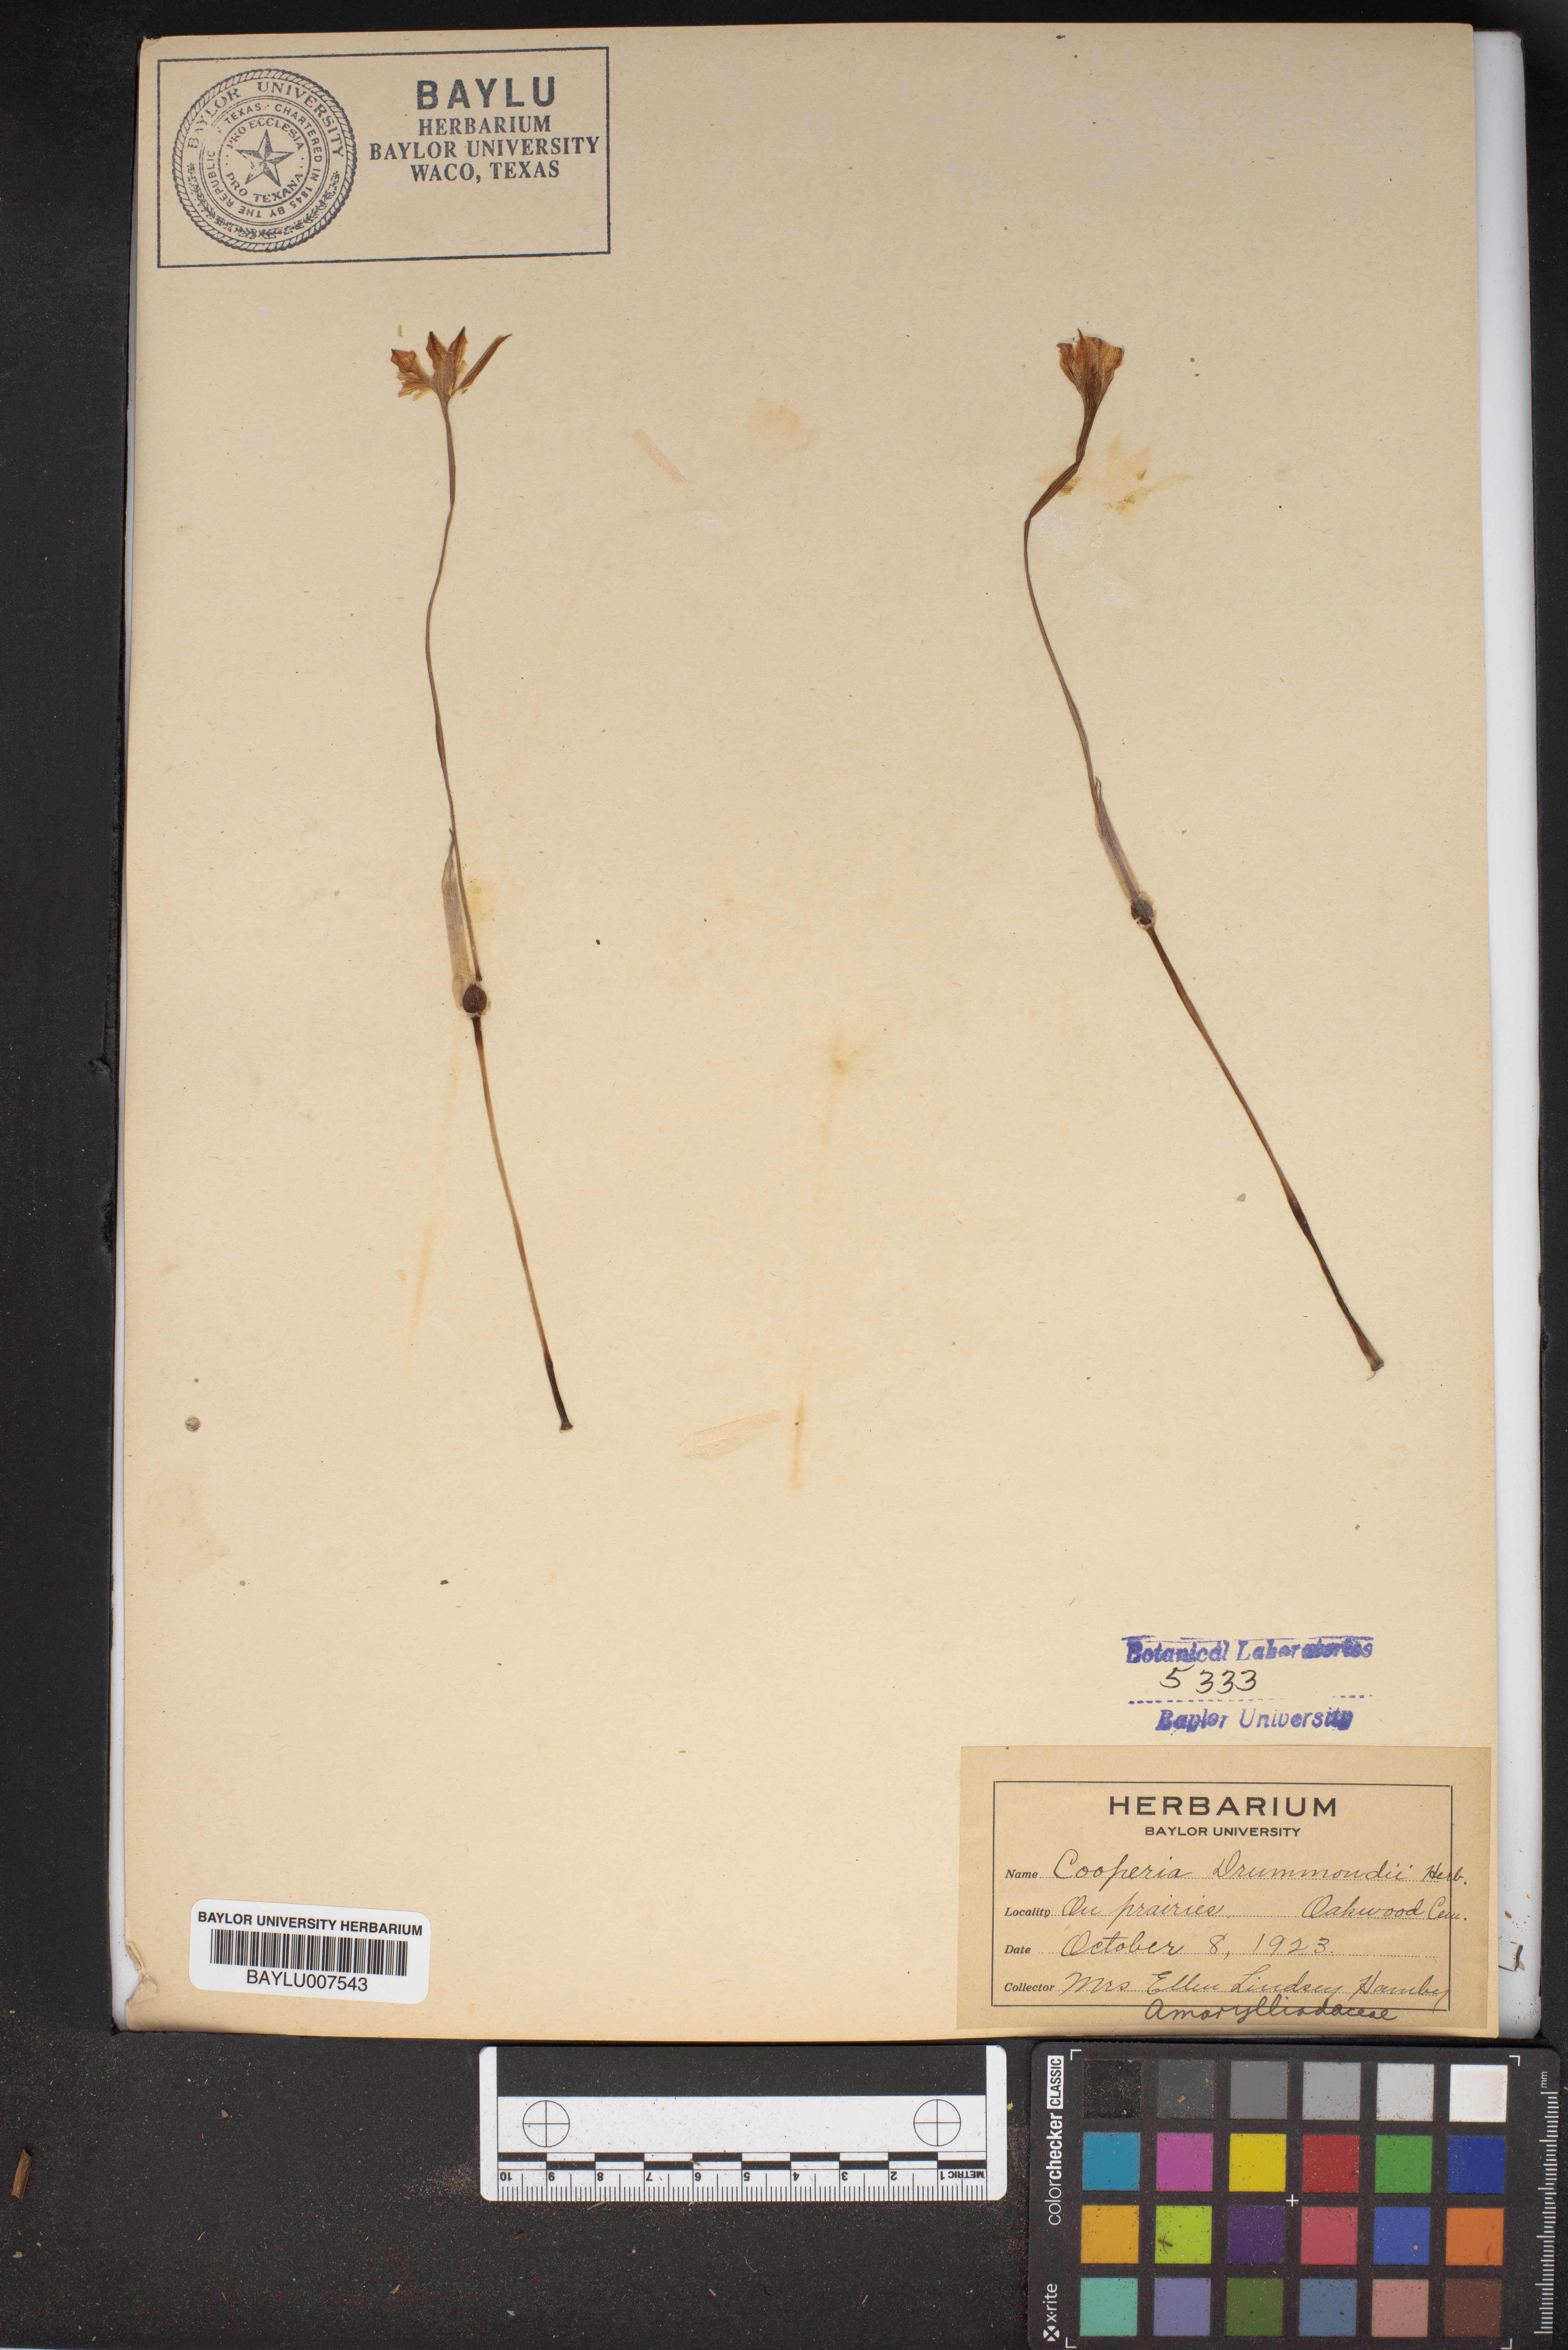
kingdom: Plantae
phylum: Tracheophyta
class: Liliopsida
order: Asparagales
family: Amaryllidaceae
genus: Zephyranthes
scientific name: Zephyranthes chlorosolen
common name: Evening rain-lily
